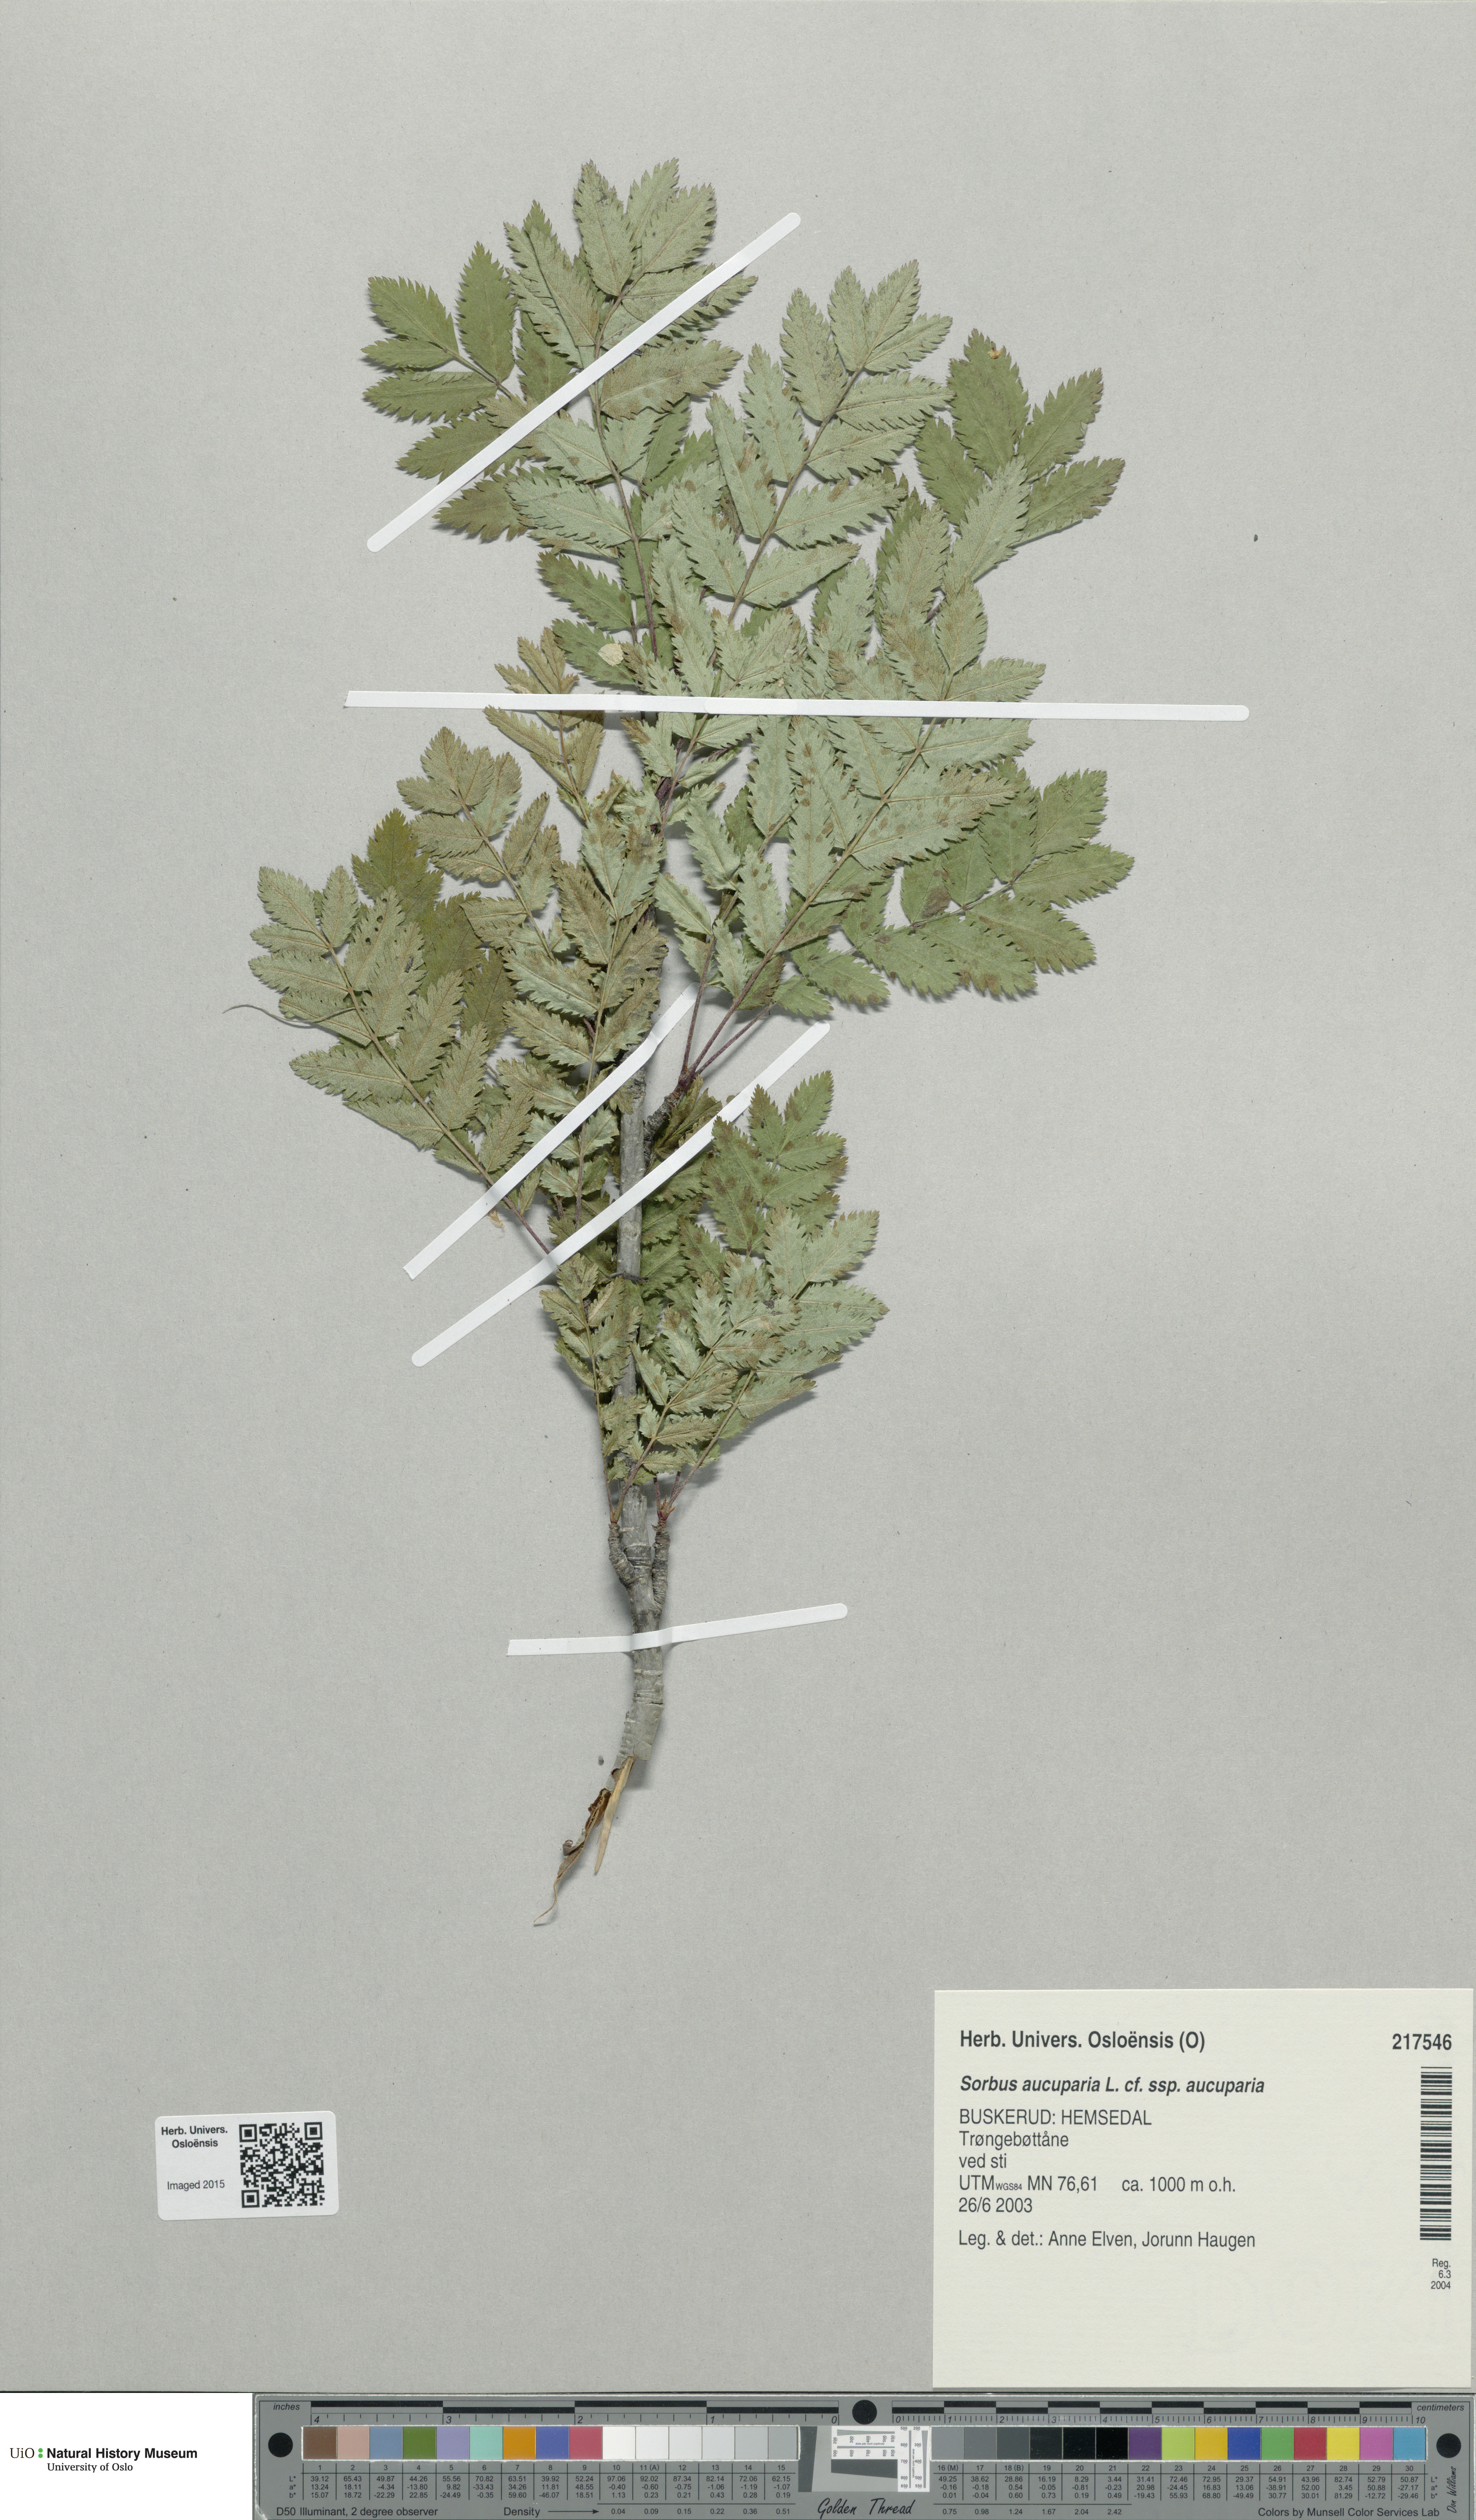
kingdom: Plantae
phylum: Tracheophyta
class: Magnoliopsida
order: Rosales
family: Rosaceae
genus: Sorbus
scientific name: Sorbus aucuparia
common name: Rowan
